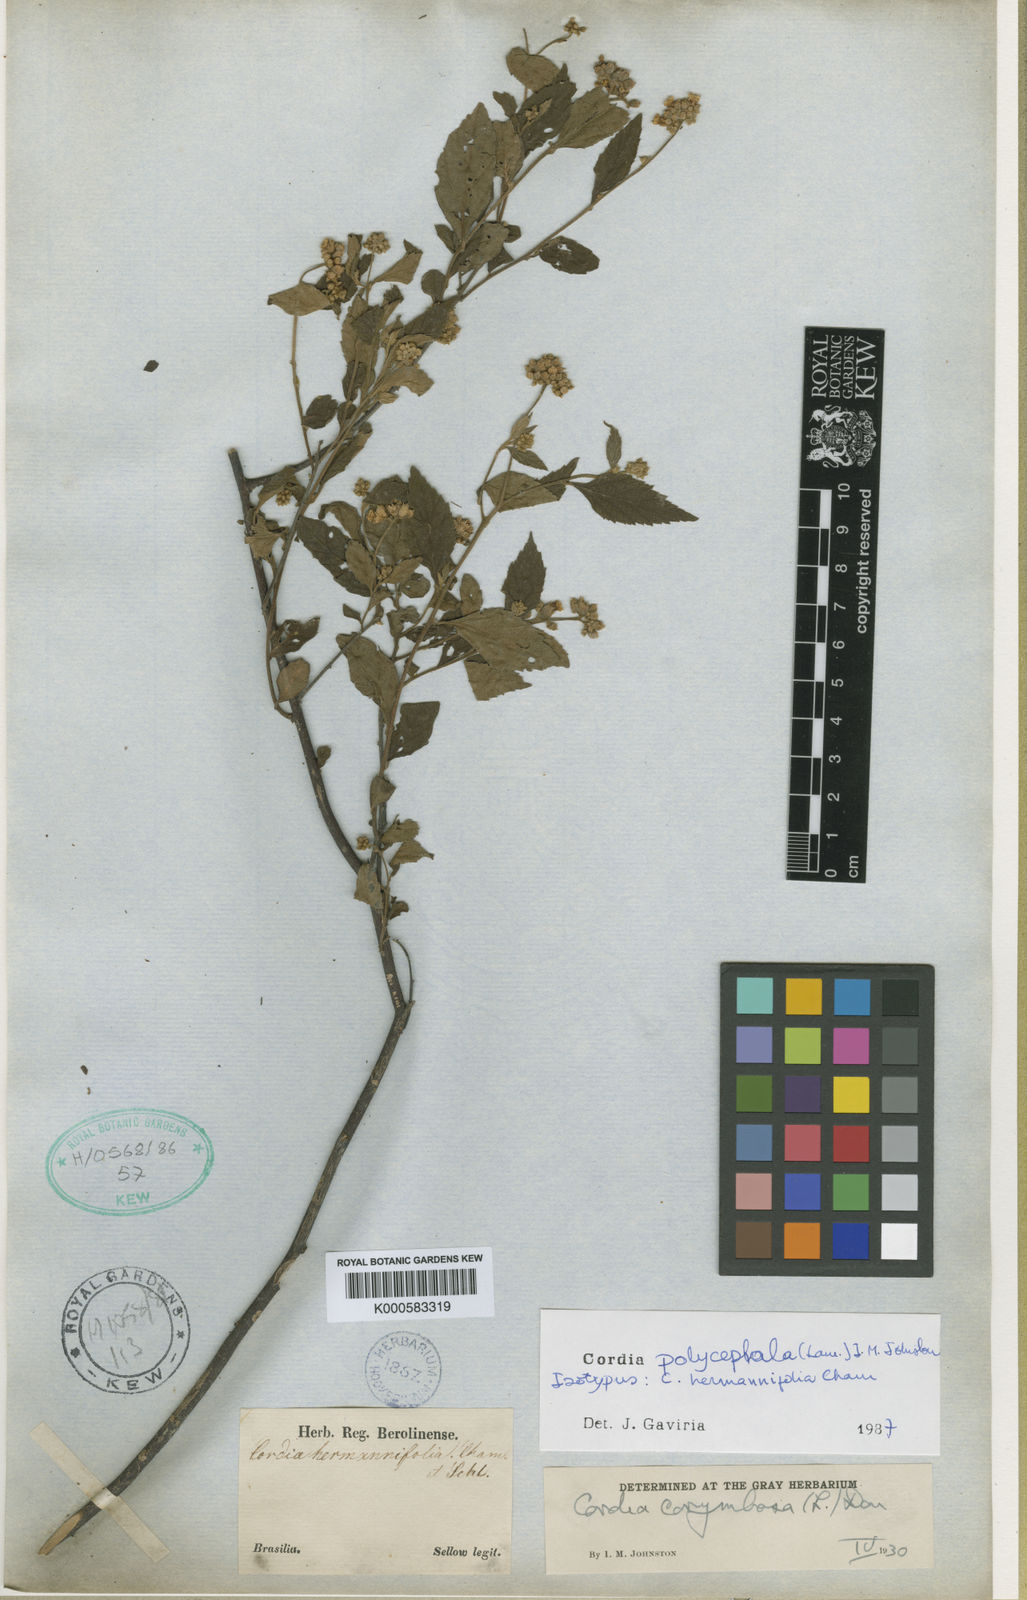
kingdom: Plantae
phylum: Tracheophyta
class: Magnoliopsida
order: Boraginales
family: Cordiaceae
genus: Varronia
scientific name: Varronia discolor
